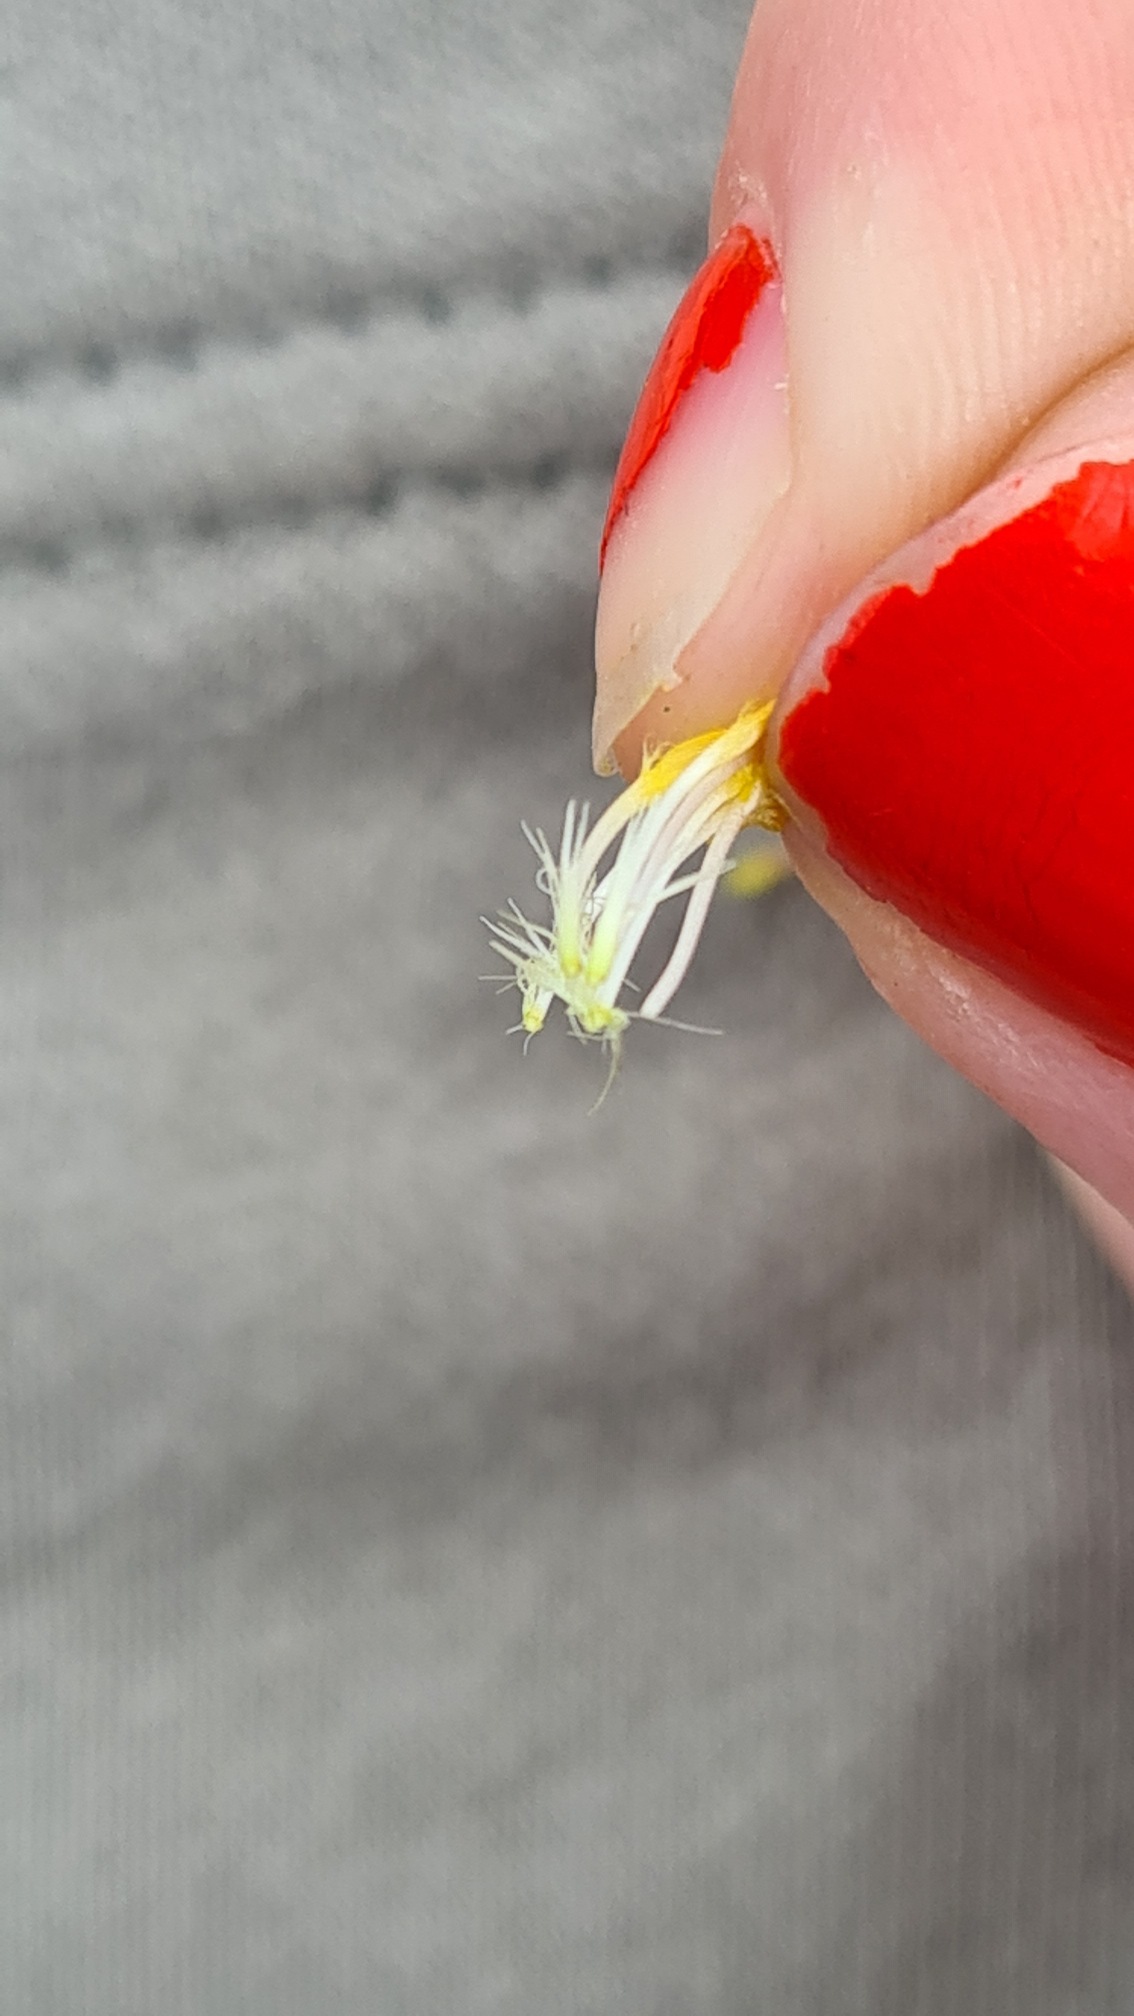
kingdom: Plantae
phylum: Tracheophyta
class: Magnoliopsida
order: Asterales
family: Asteraceae
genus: Hypochaeris
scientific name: Hypochaeris radicata
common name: Almindelig kongepen
